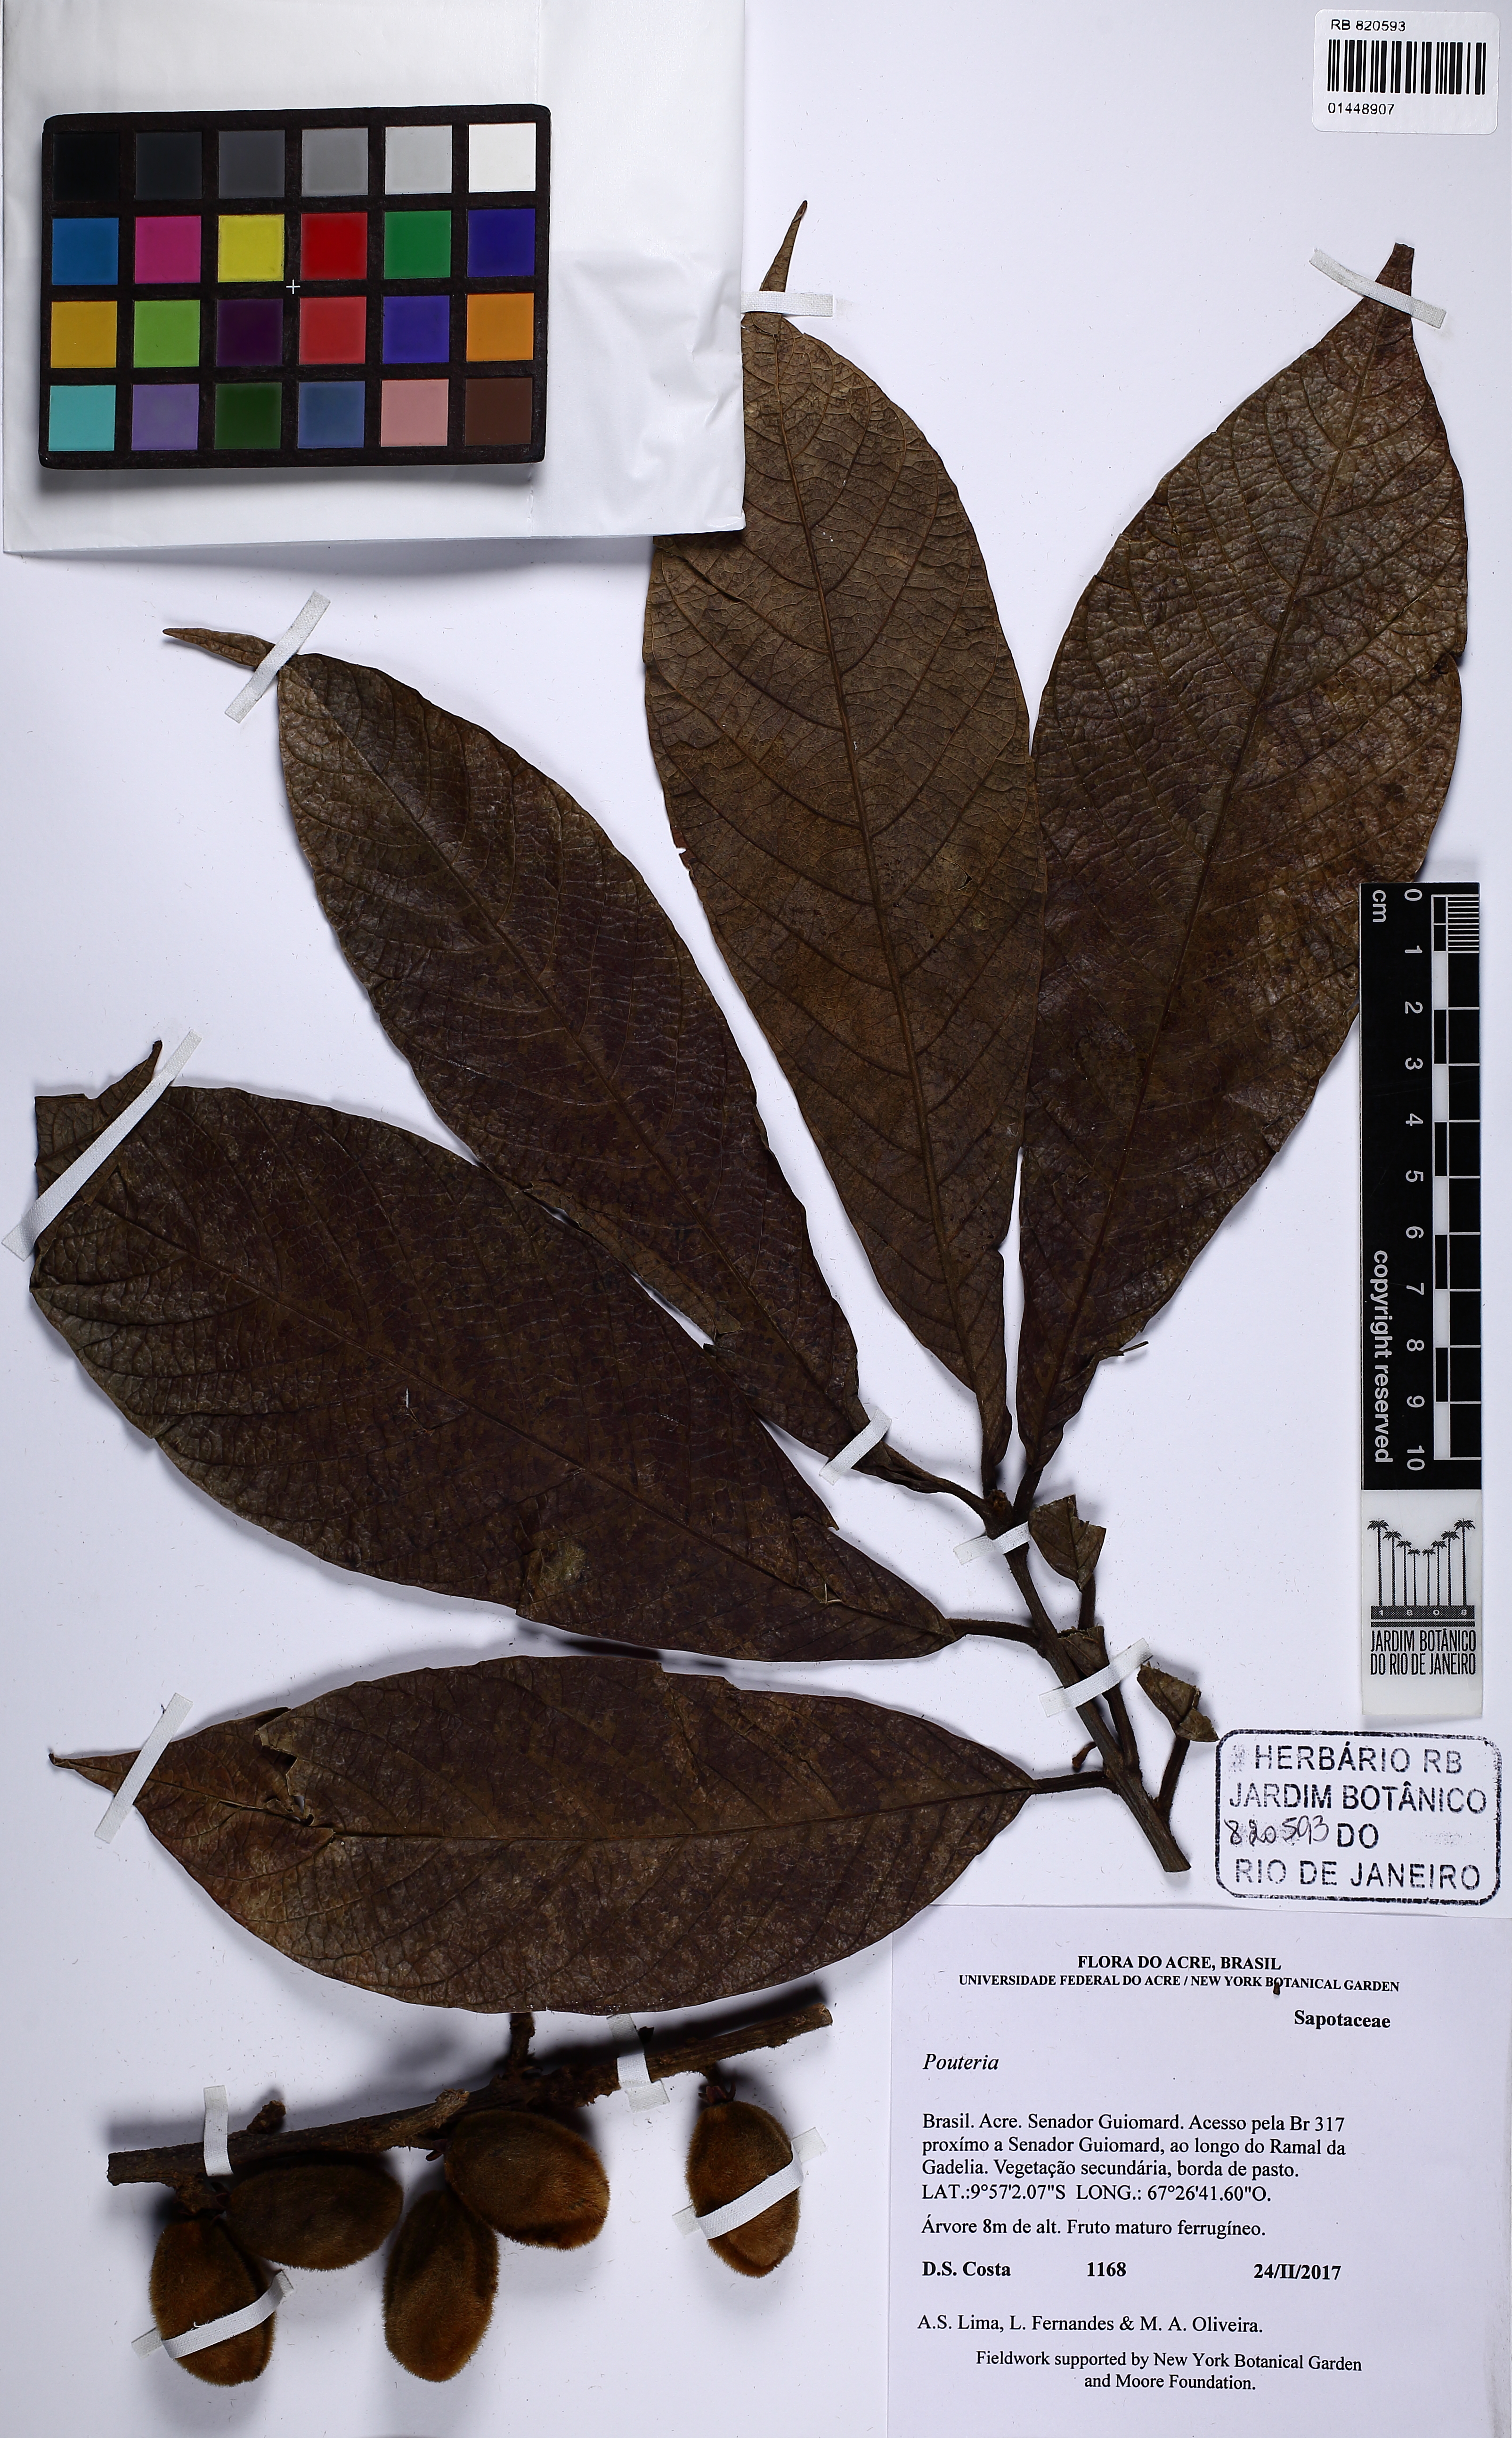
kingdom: Plantae
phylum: Tracheophyta
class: Magnoliopsida
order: Ericales
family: Sapotaceae
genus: Pouteria
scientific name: Pouteria
